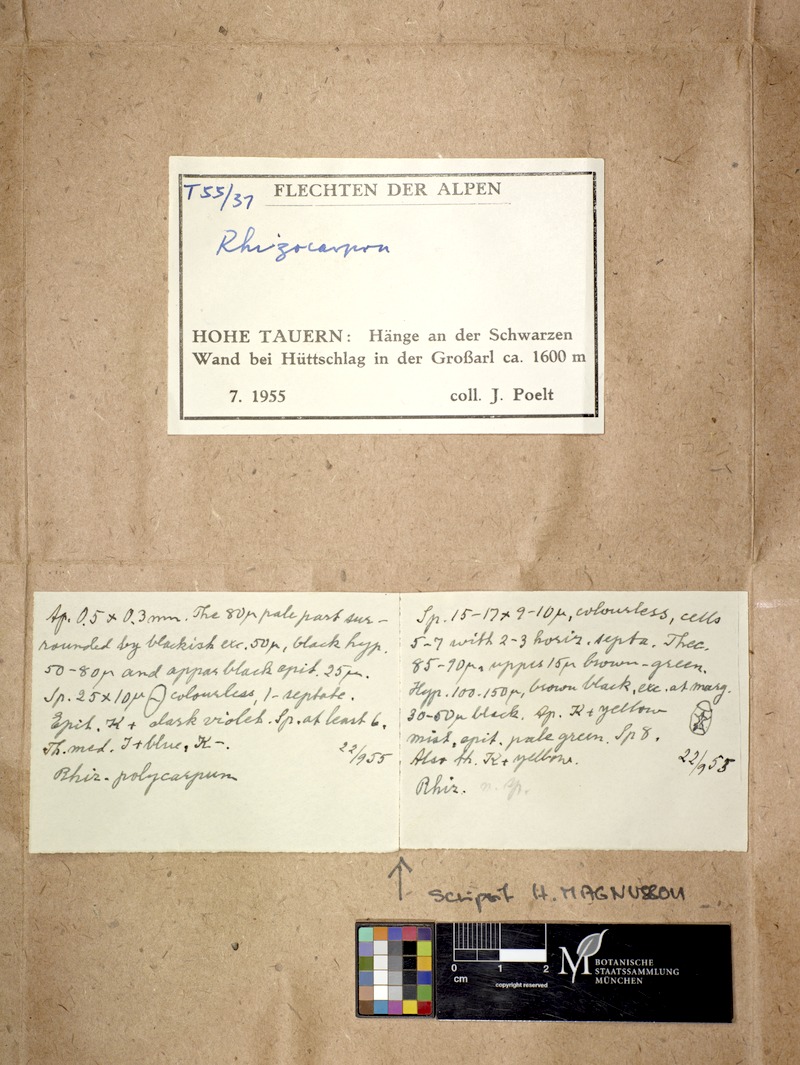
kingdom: Fungi
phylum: Ascomycota
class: Lecanoromycetes
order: Rhizocarpales
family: Rhizocarpaceae
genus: Rhizocarpon
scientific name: Rhizocarpon furfurosum
